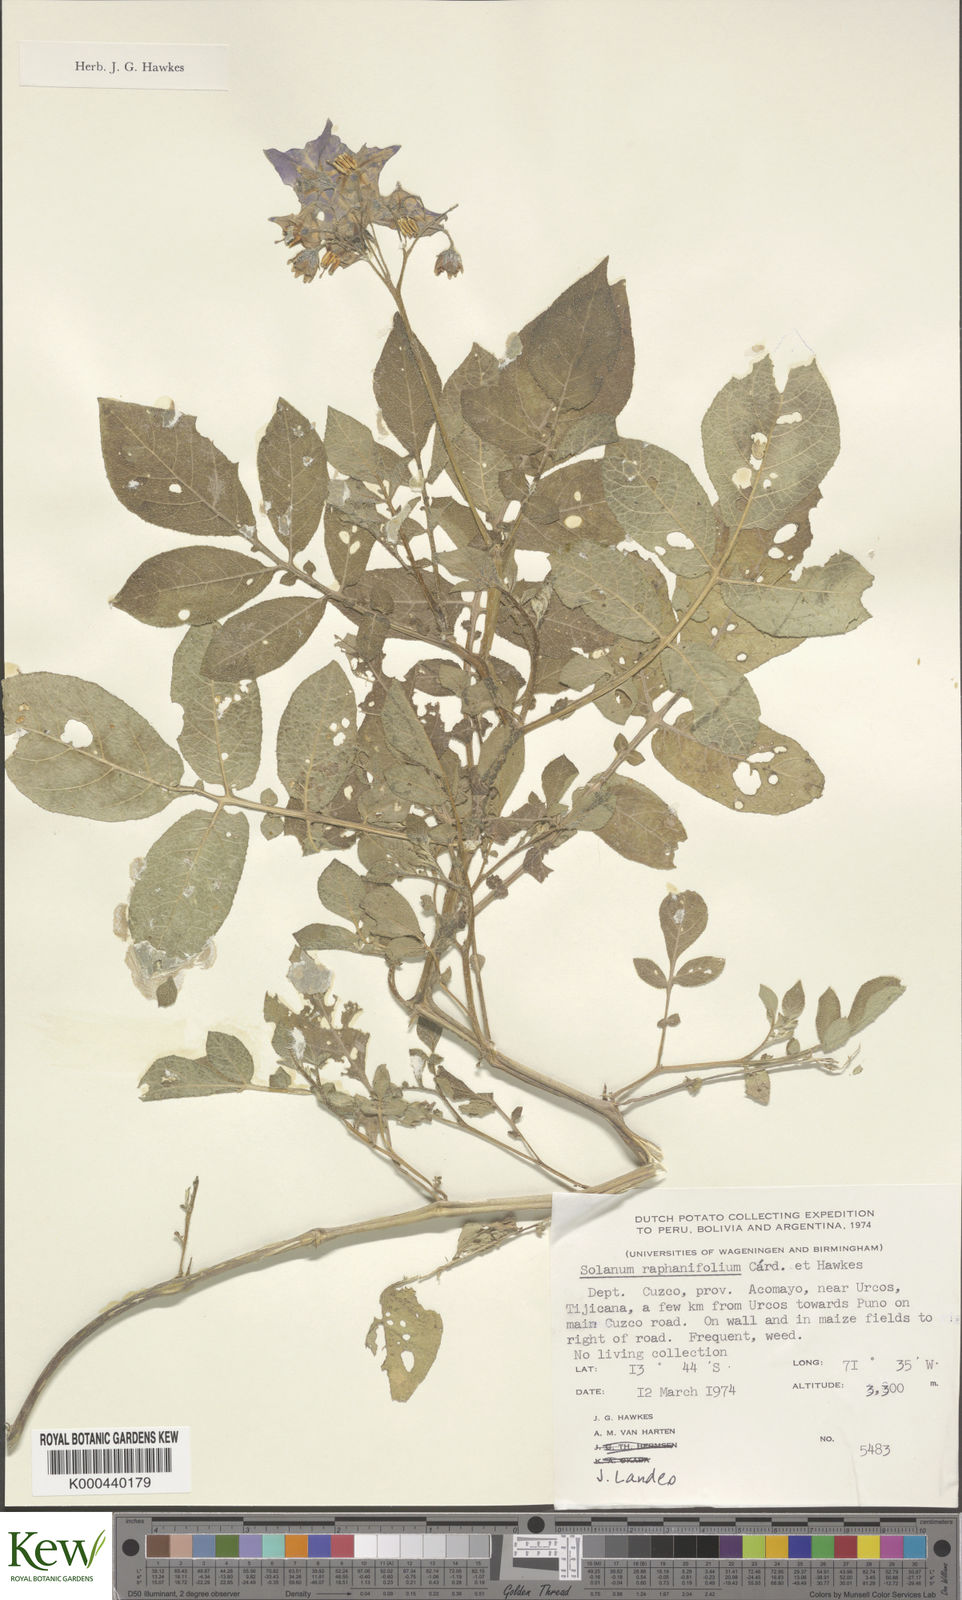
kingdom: Plantae
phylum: Tracheophyta
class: Magnoliopsida
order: Solanales
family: Solanaceae
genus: Solanum
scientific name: Solanum raphanifolium
